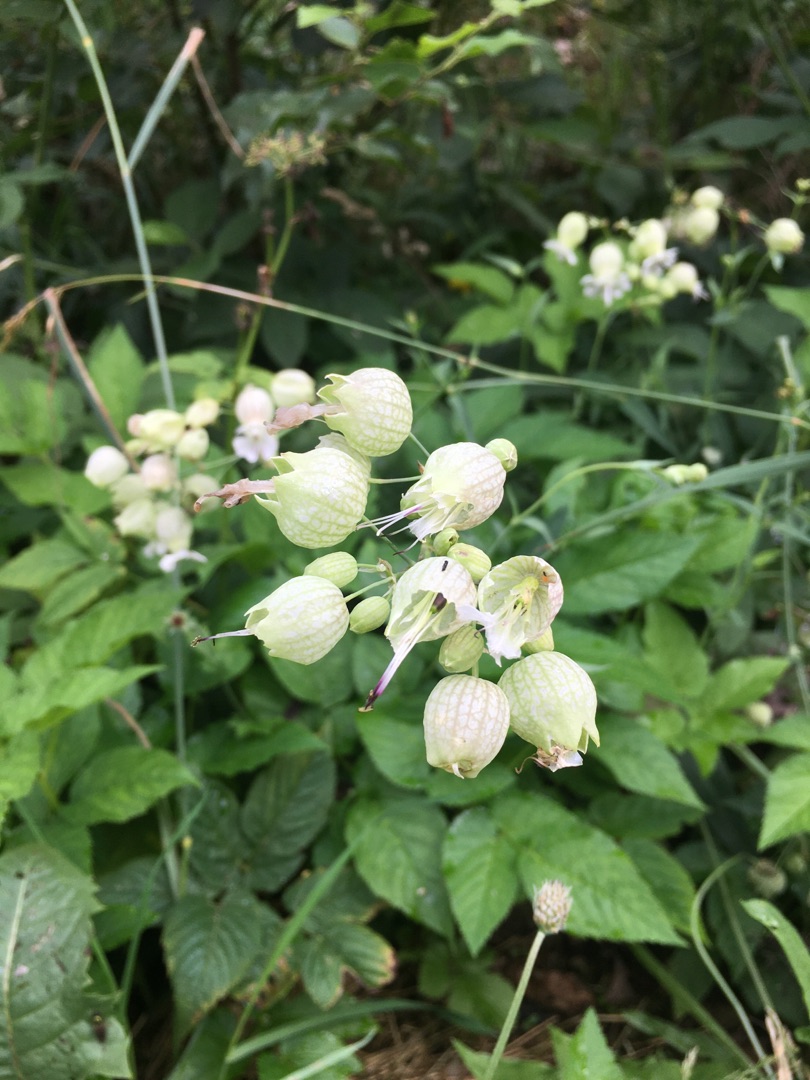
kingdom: Plantae
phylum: Tracheophyta
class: Magnoliopsida
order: Caryophyllales
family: Caryophyllaceae
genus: Silene
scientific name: Silene vulgaris
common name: Blæresmælde
